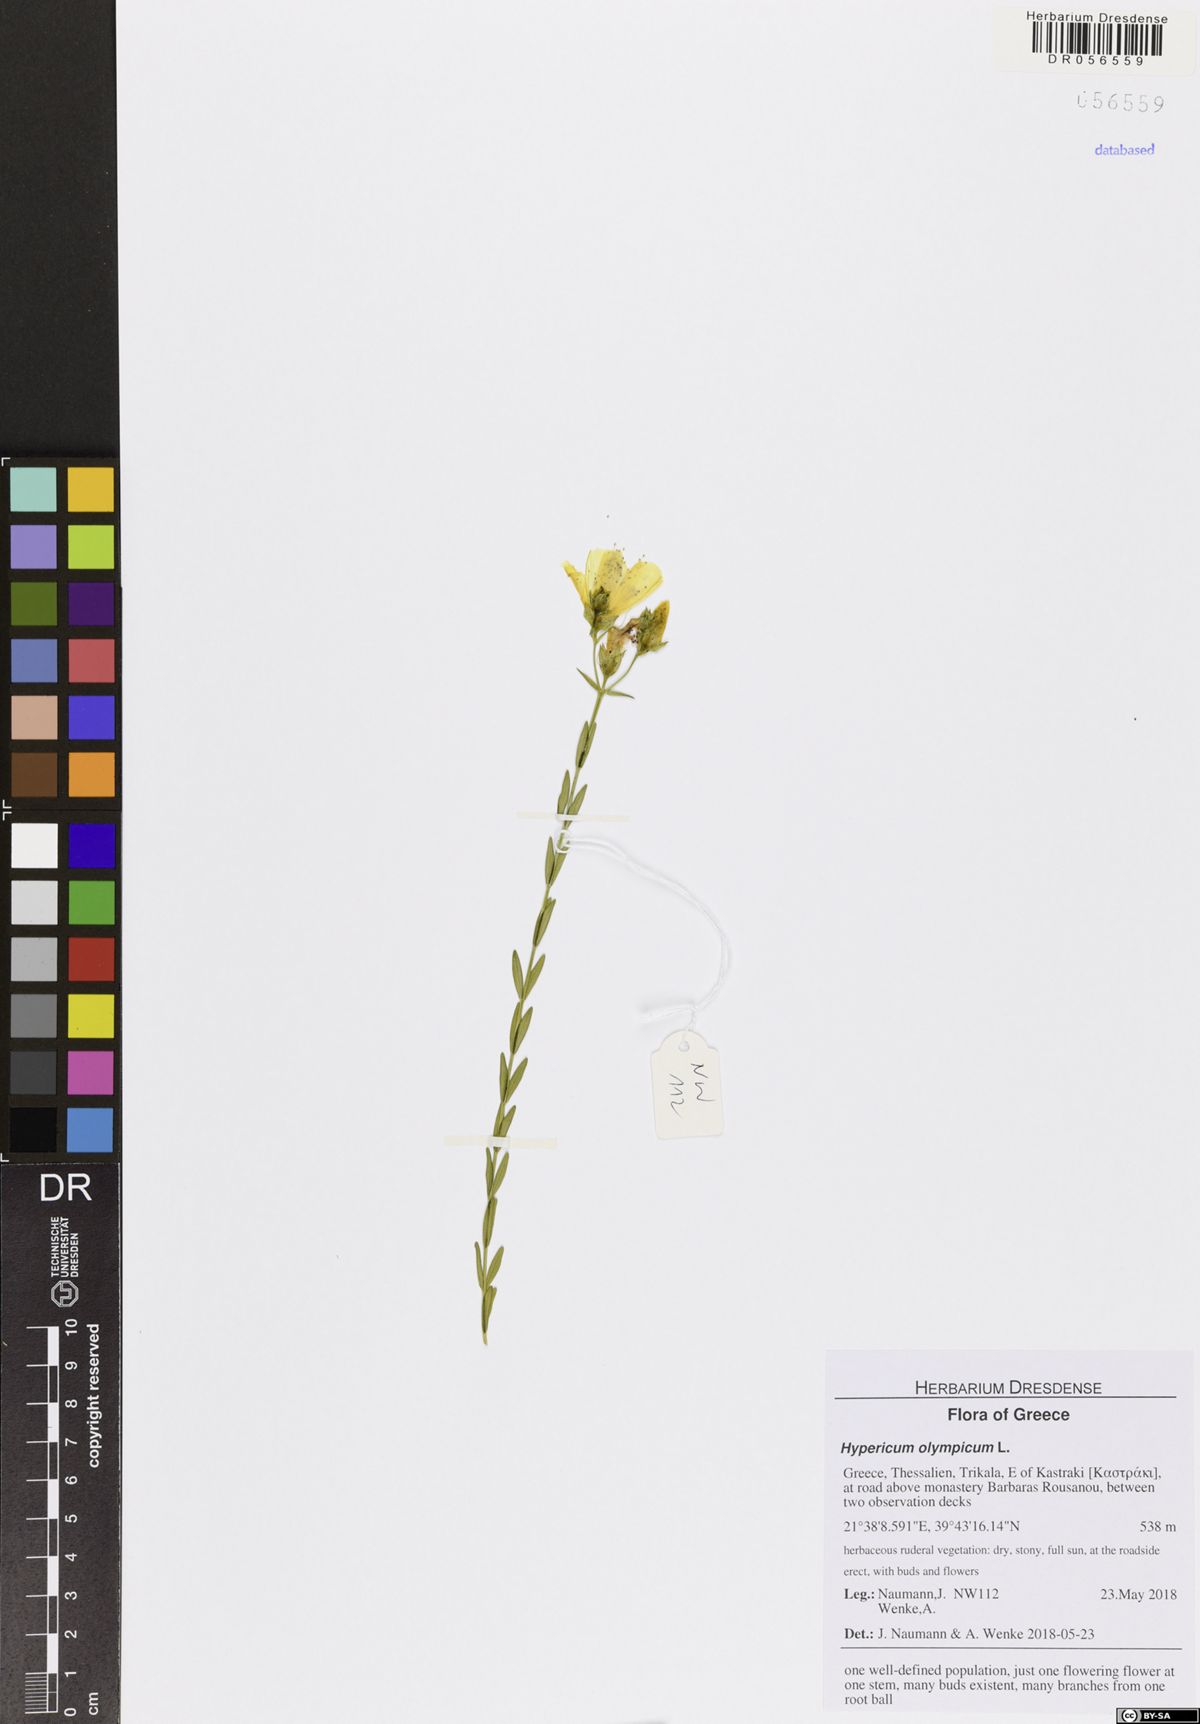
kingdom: Plantae
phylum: Tracheophyta
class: Magnoliopsida
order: Malpighiales
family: Hypericaceae
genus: Hypericum
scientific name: Hypericum olympicum
